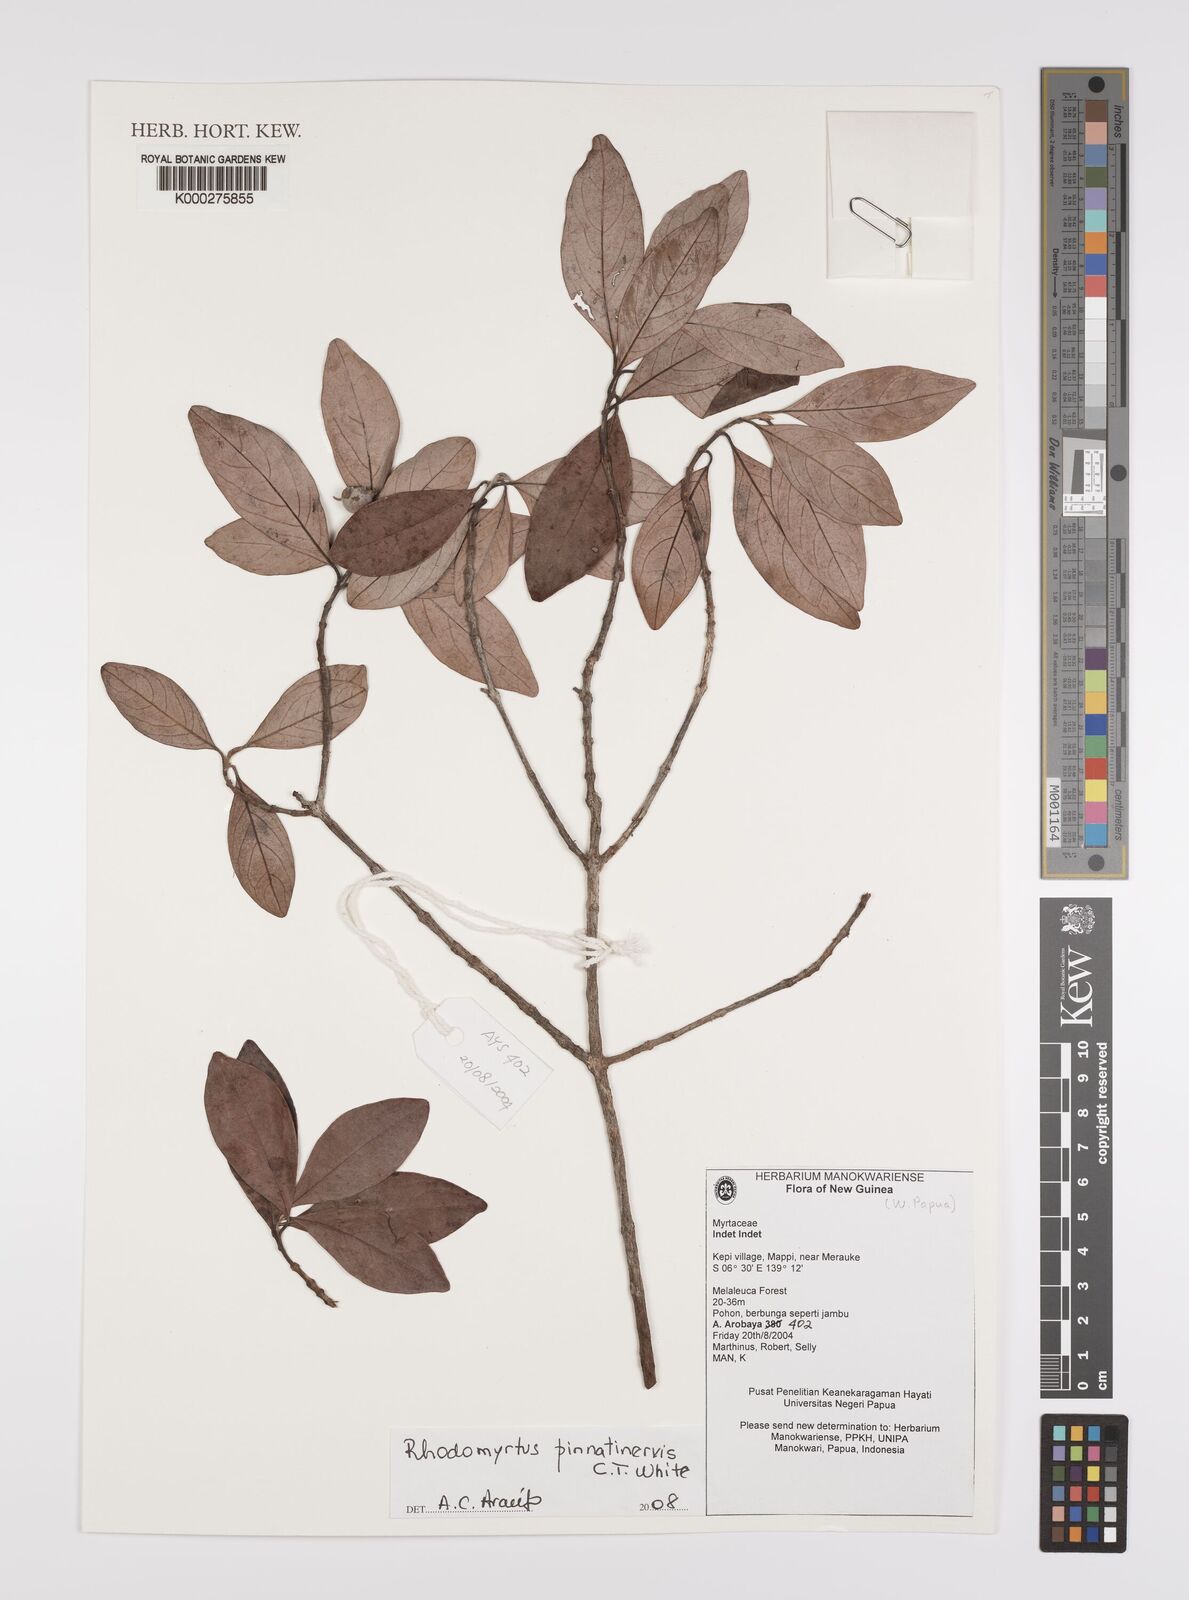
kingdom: Plantae
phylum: Tracheophyta
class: Magnoliopsida
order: Myrtales
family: Myrtaceae
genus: Rhodomyrtus
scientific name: Rhodomyrtus
